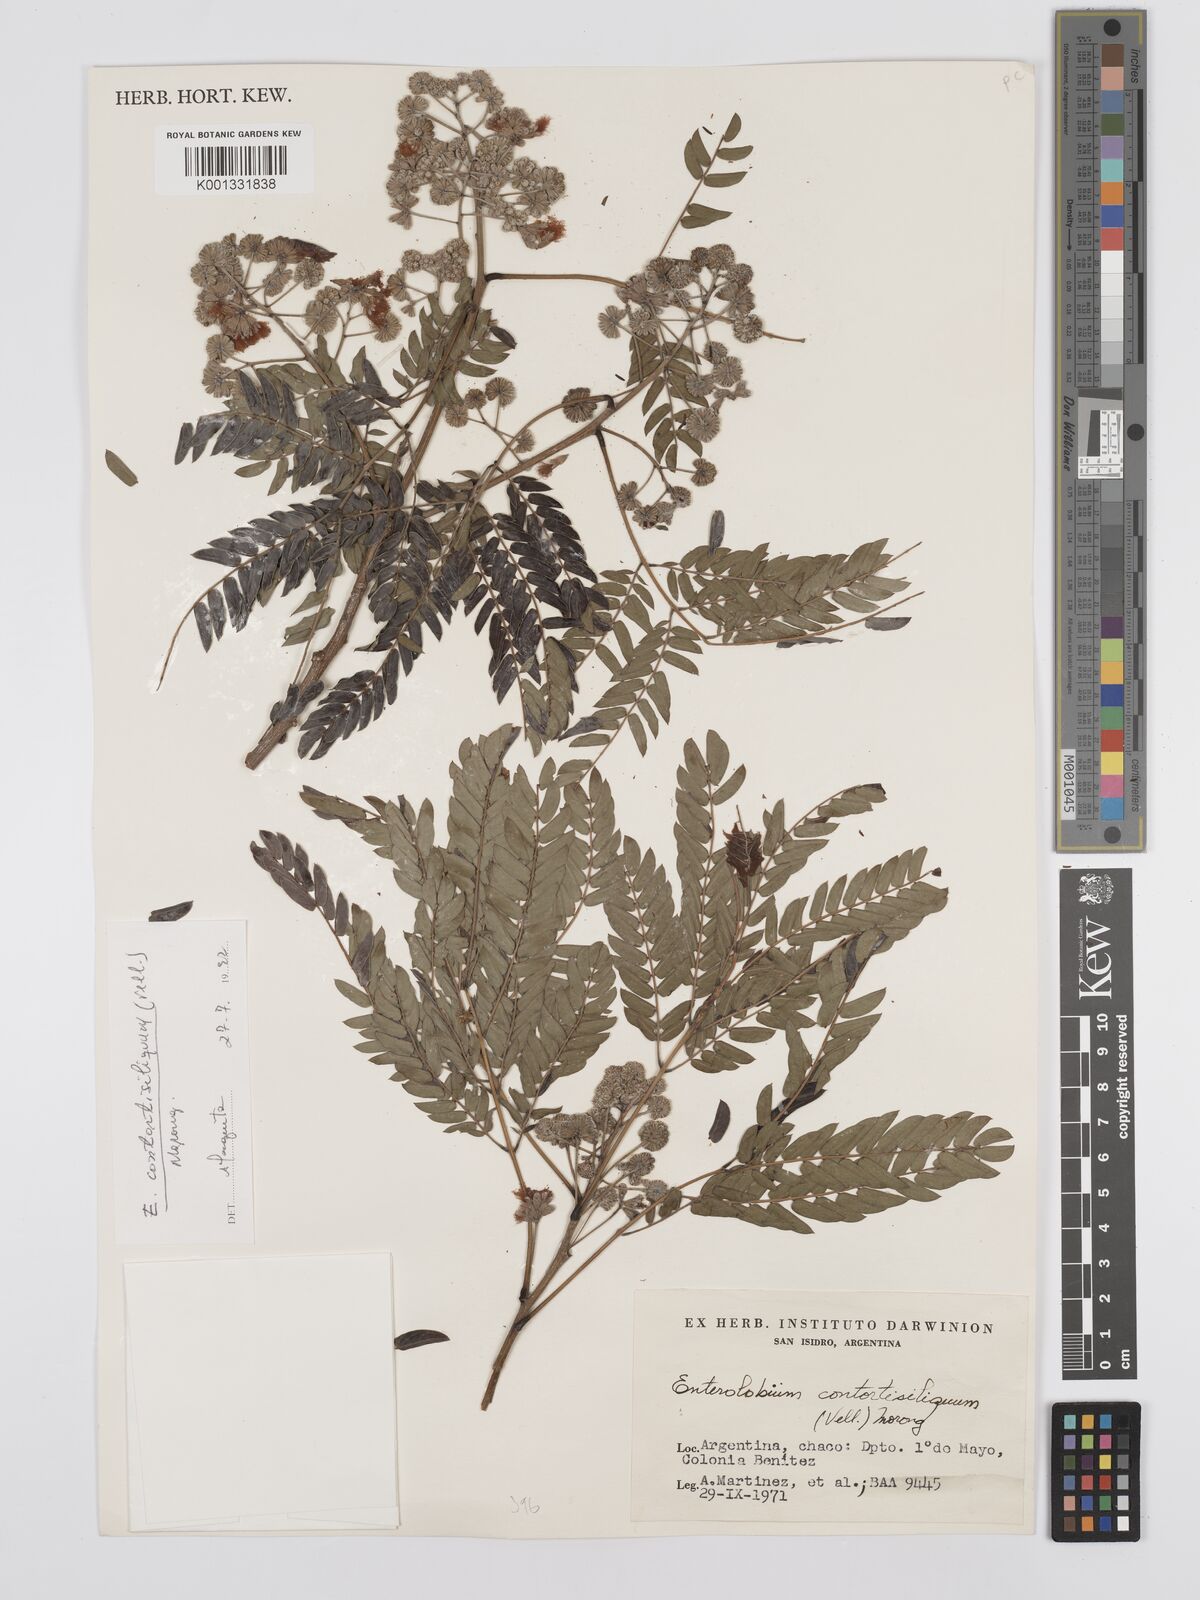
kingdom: Plantae
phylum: Tracheophyta
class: Magnoliopsida
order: Fabales
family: Fabaceae
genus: Enterolobium
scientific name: Enterolobium contortisiliquum
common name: Pacara earpod tree
